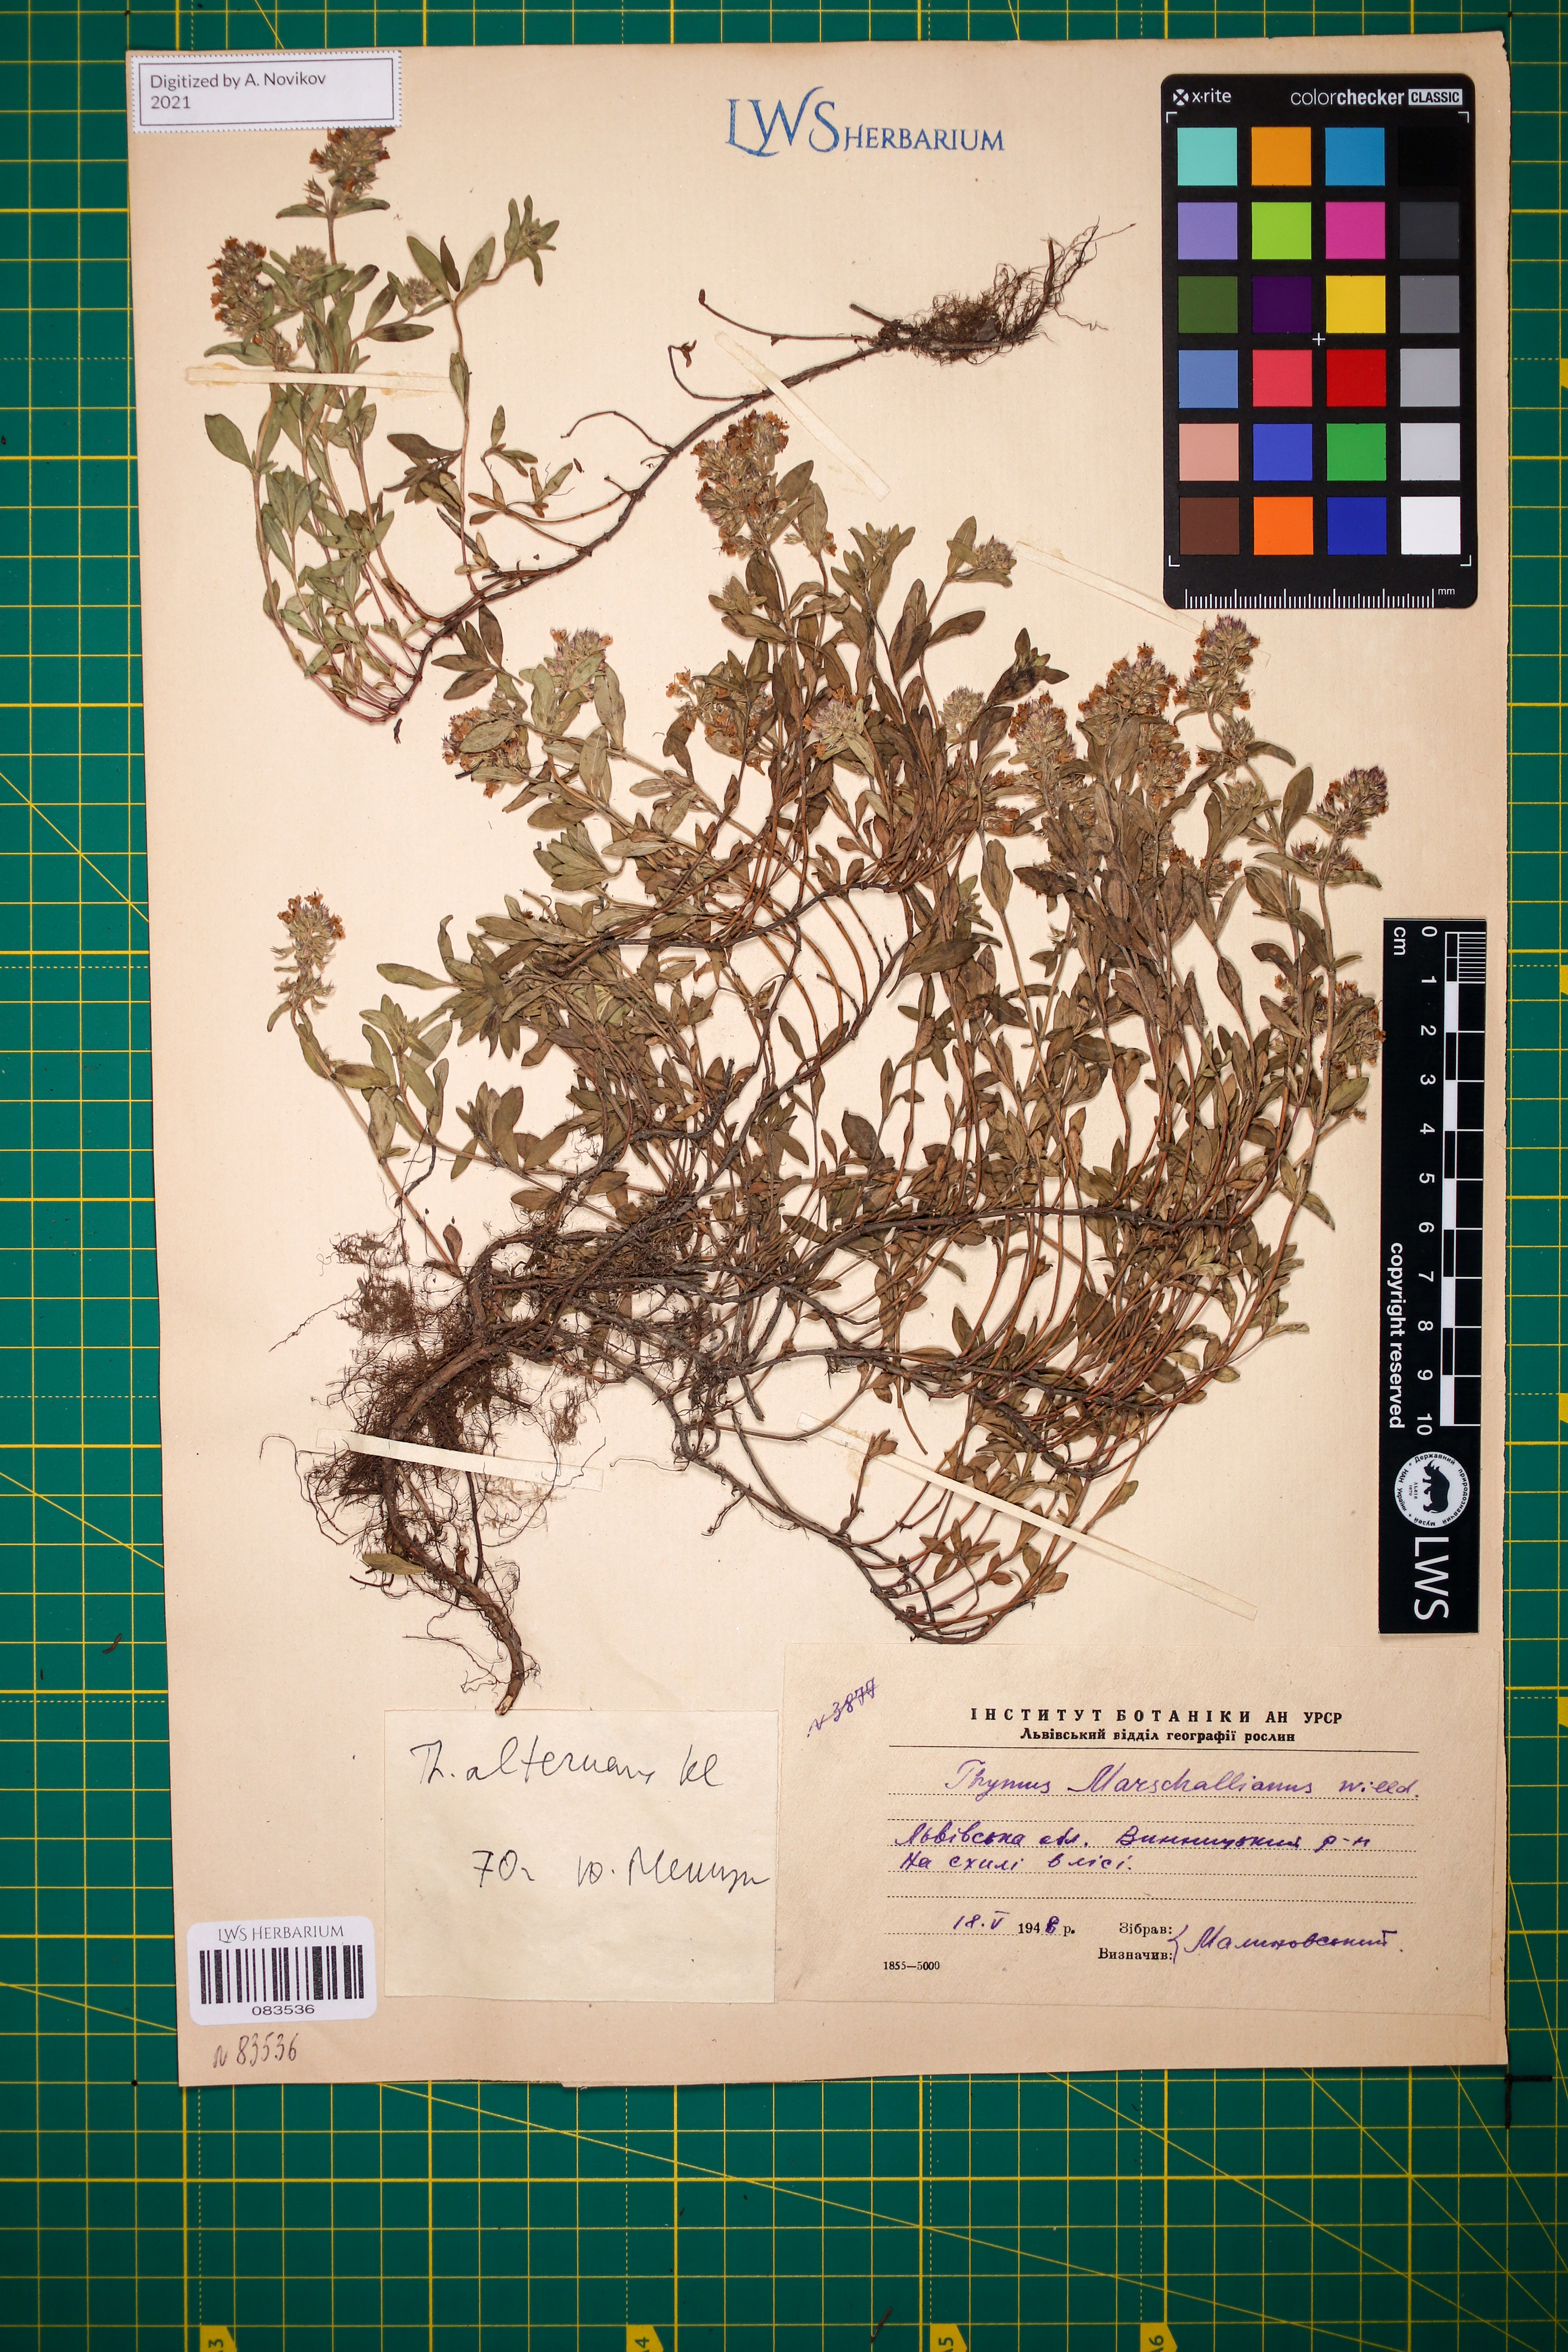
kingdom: Plantae
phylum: Tracheophyta
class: Magnoliopsida
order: Lamiales
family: Lamiaceae
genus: Thymus
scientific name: Thymus alternans
